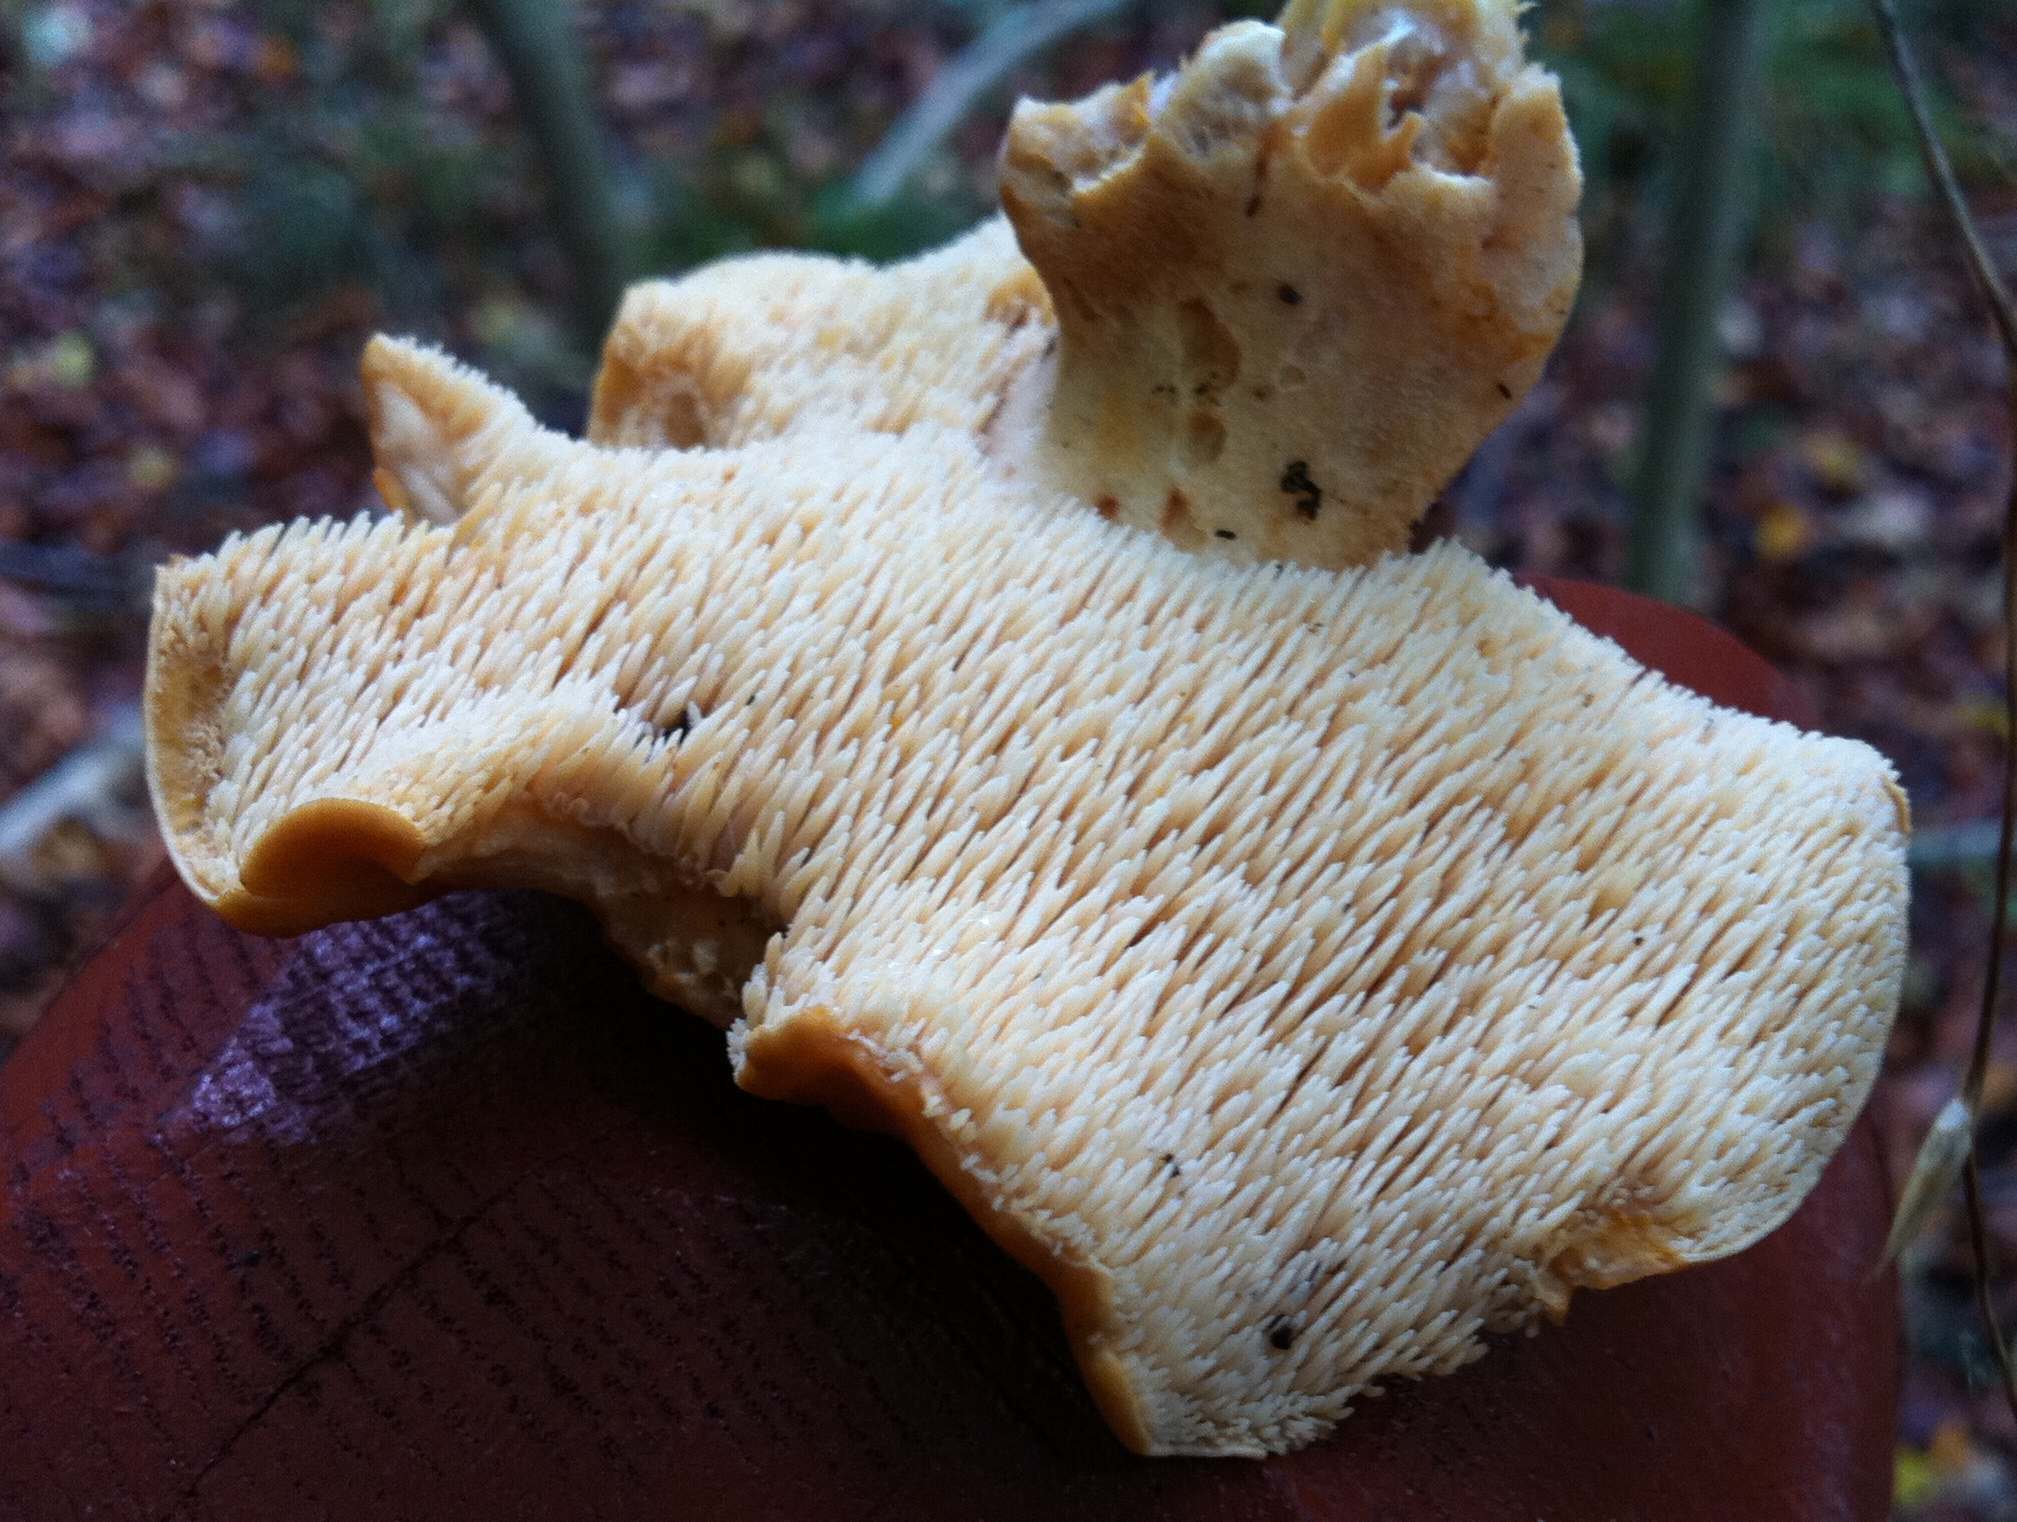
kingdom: Fungi
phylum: Basidiomycota
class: Agaricomycetes
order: Cantharellales
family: Hydnaceae
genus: Hydnum
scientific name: Hydnum rufescens
